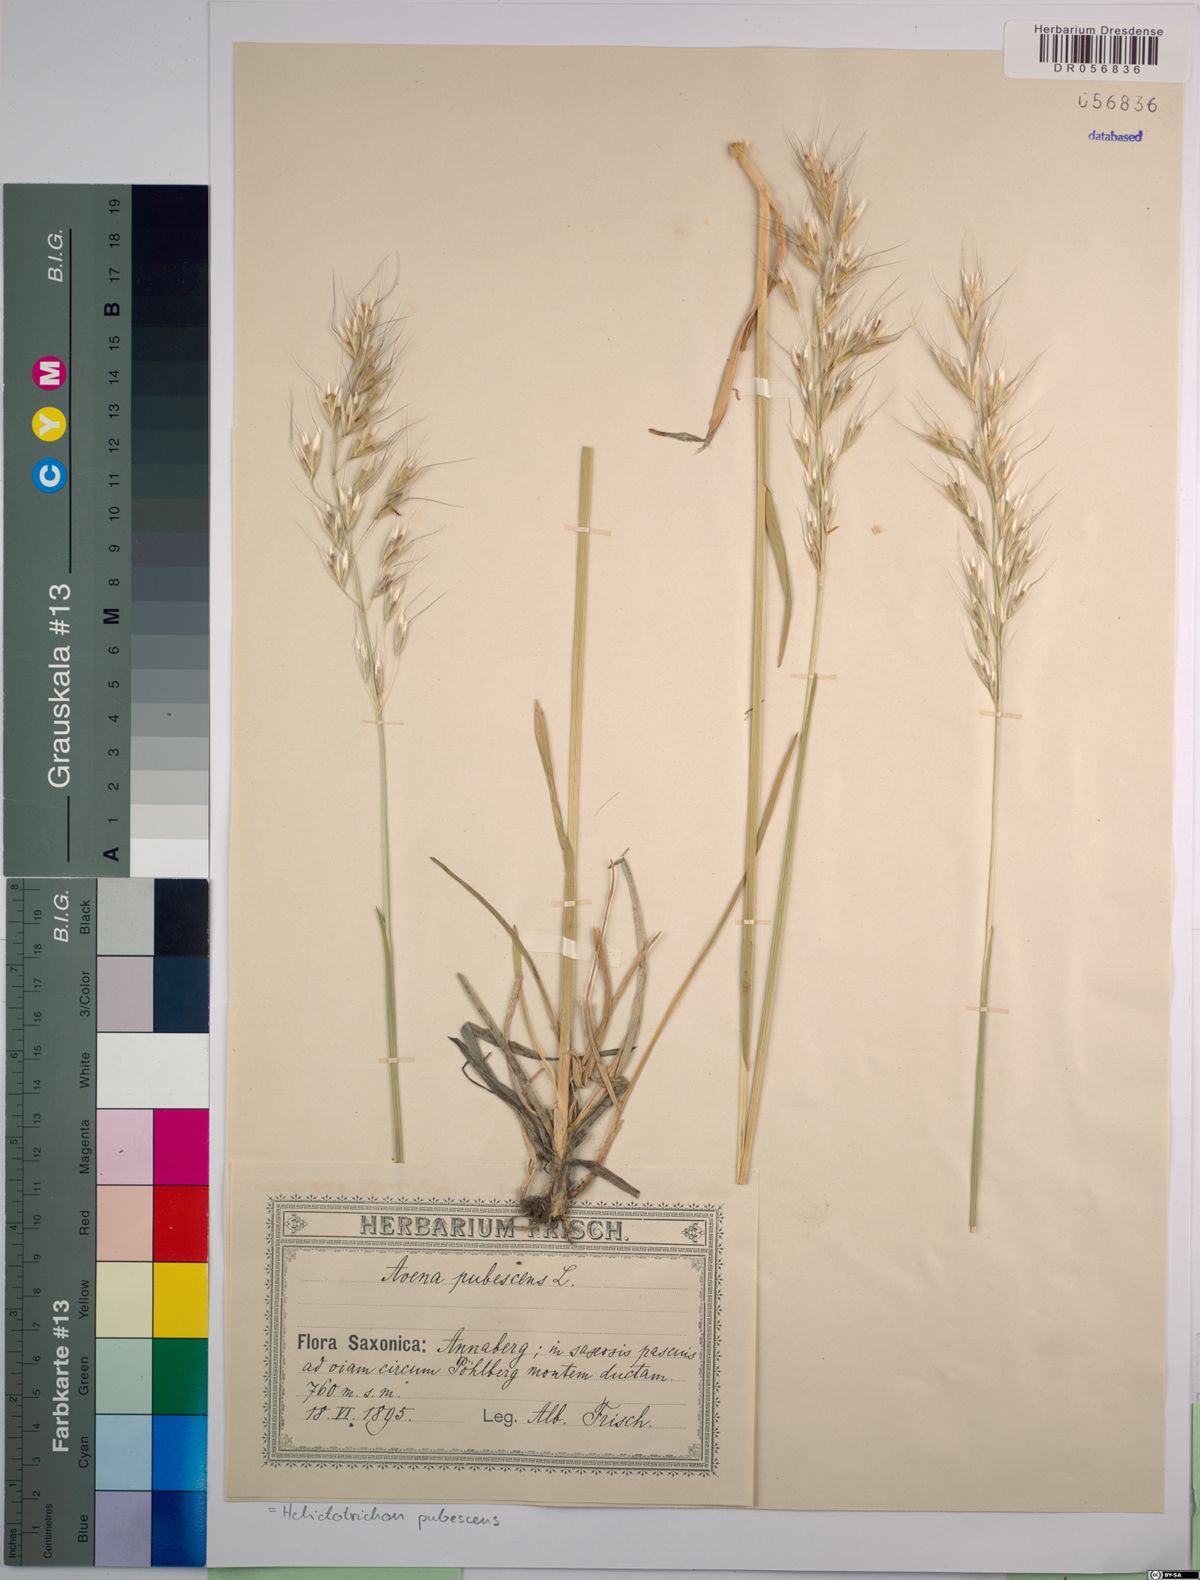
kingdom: Plantae
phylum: Tracheophyta
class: Liliopsida
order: Poales
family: Poaceae
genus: Avenula
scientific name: Avenula pubescens
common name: Downy alpine oatgrass
